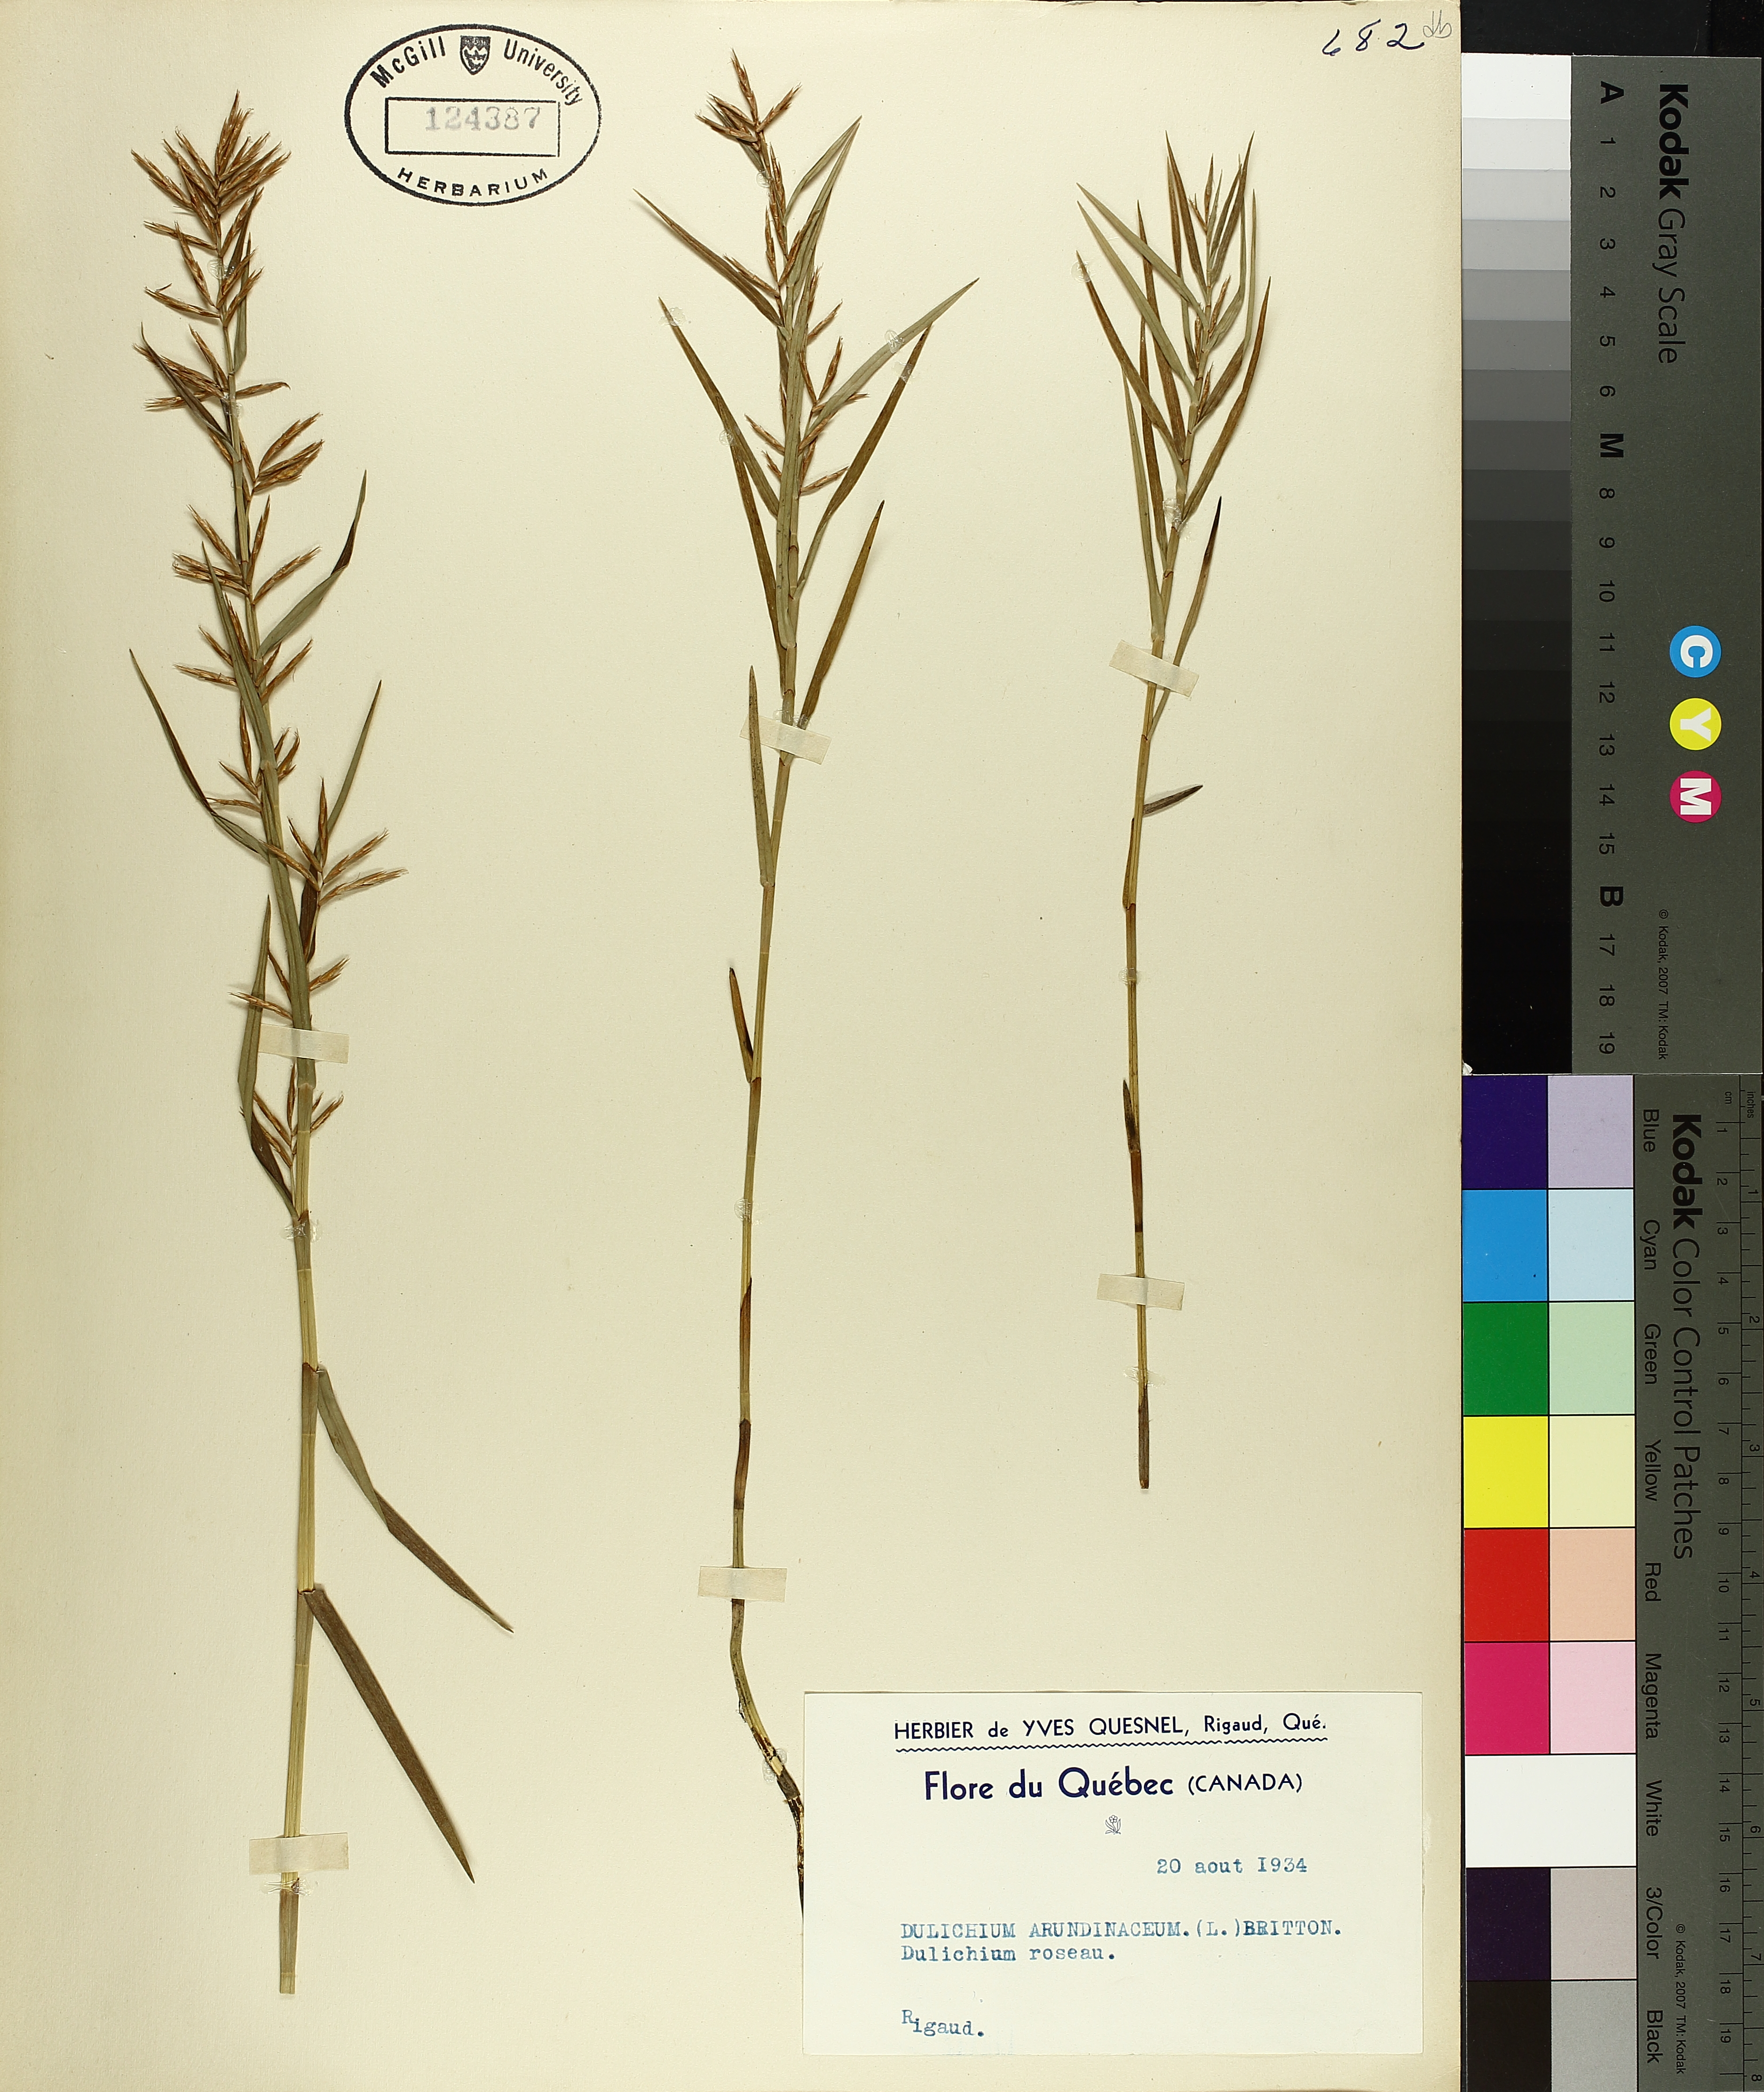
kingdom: Plantae
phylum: Tracheophyta
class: Liliopsida
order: Poales
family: Cyperaceae
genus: Dulichium
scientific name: Dulichium arundinaceum
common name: Three-way sedge
